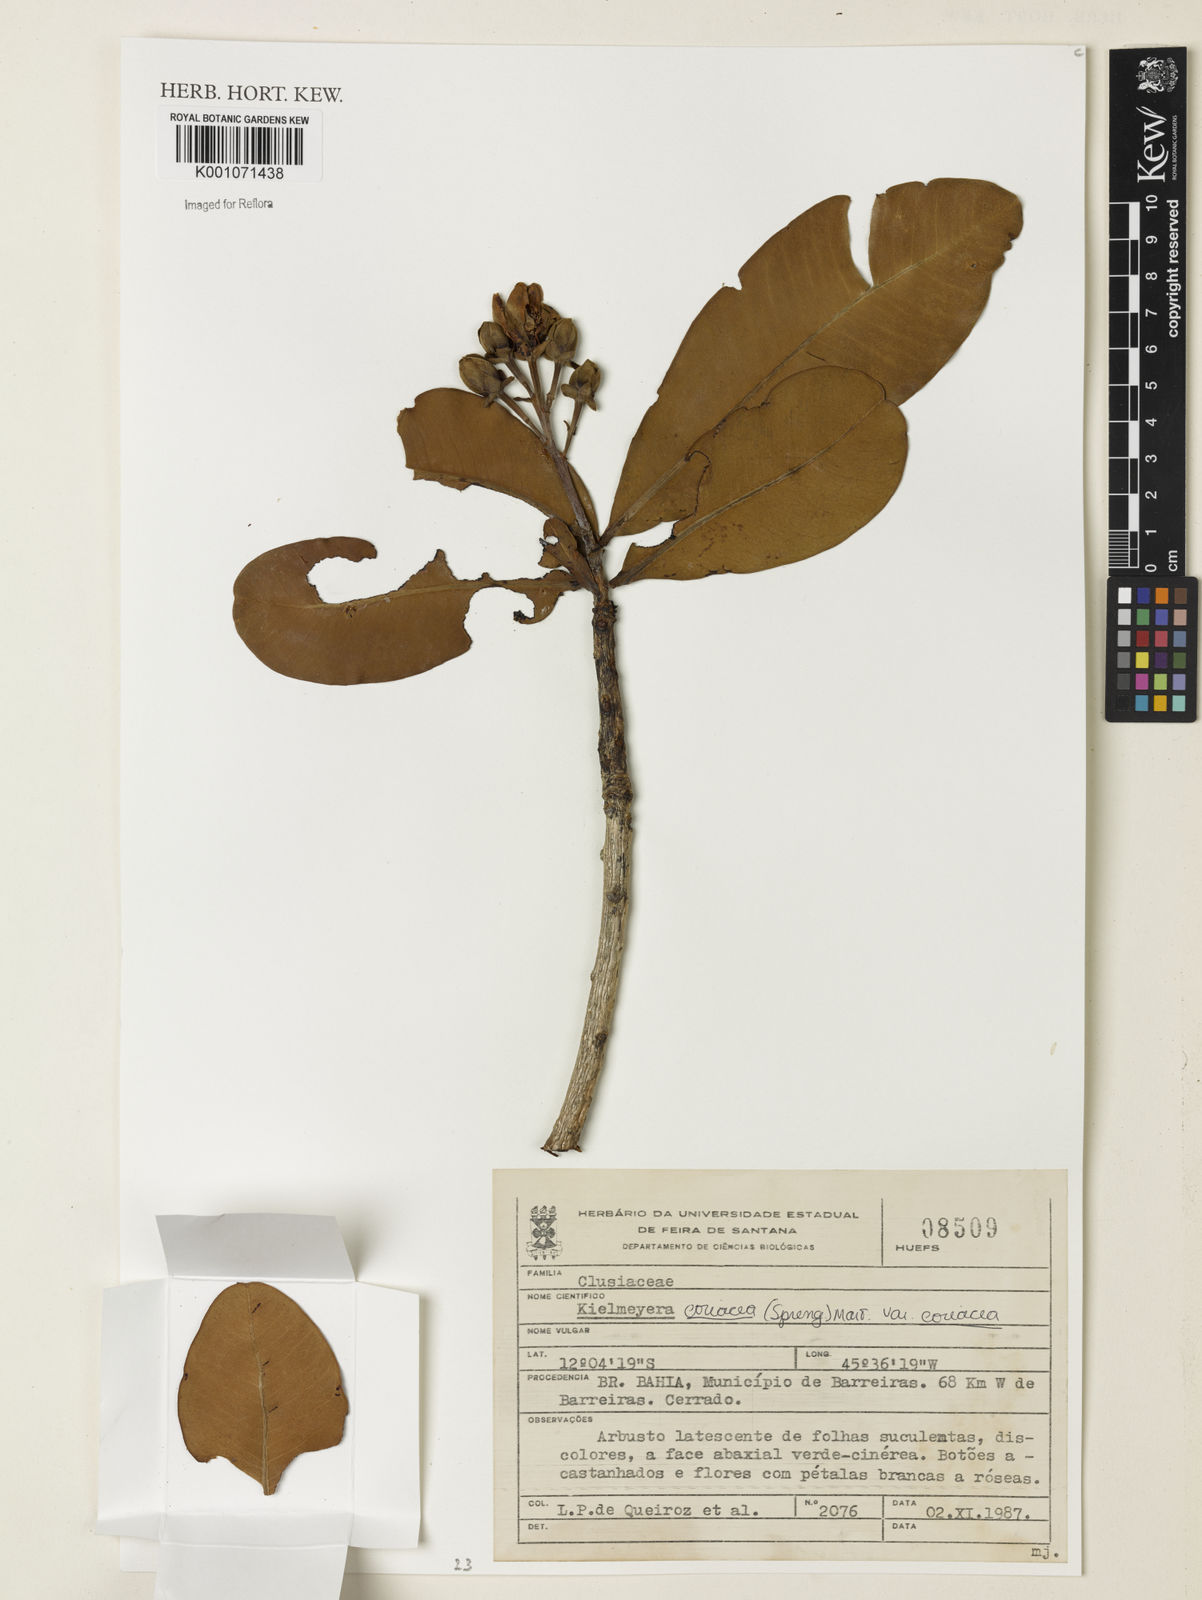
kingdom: Plantae
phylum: Tracheophyta
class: Magnoliopsida
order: Malpighiales
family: Calophyllaceae
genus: Kielmeyera
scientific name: Kielmeyera coriacea
